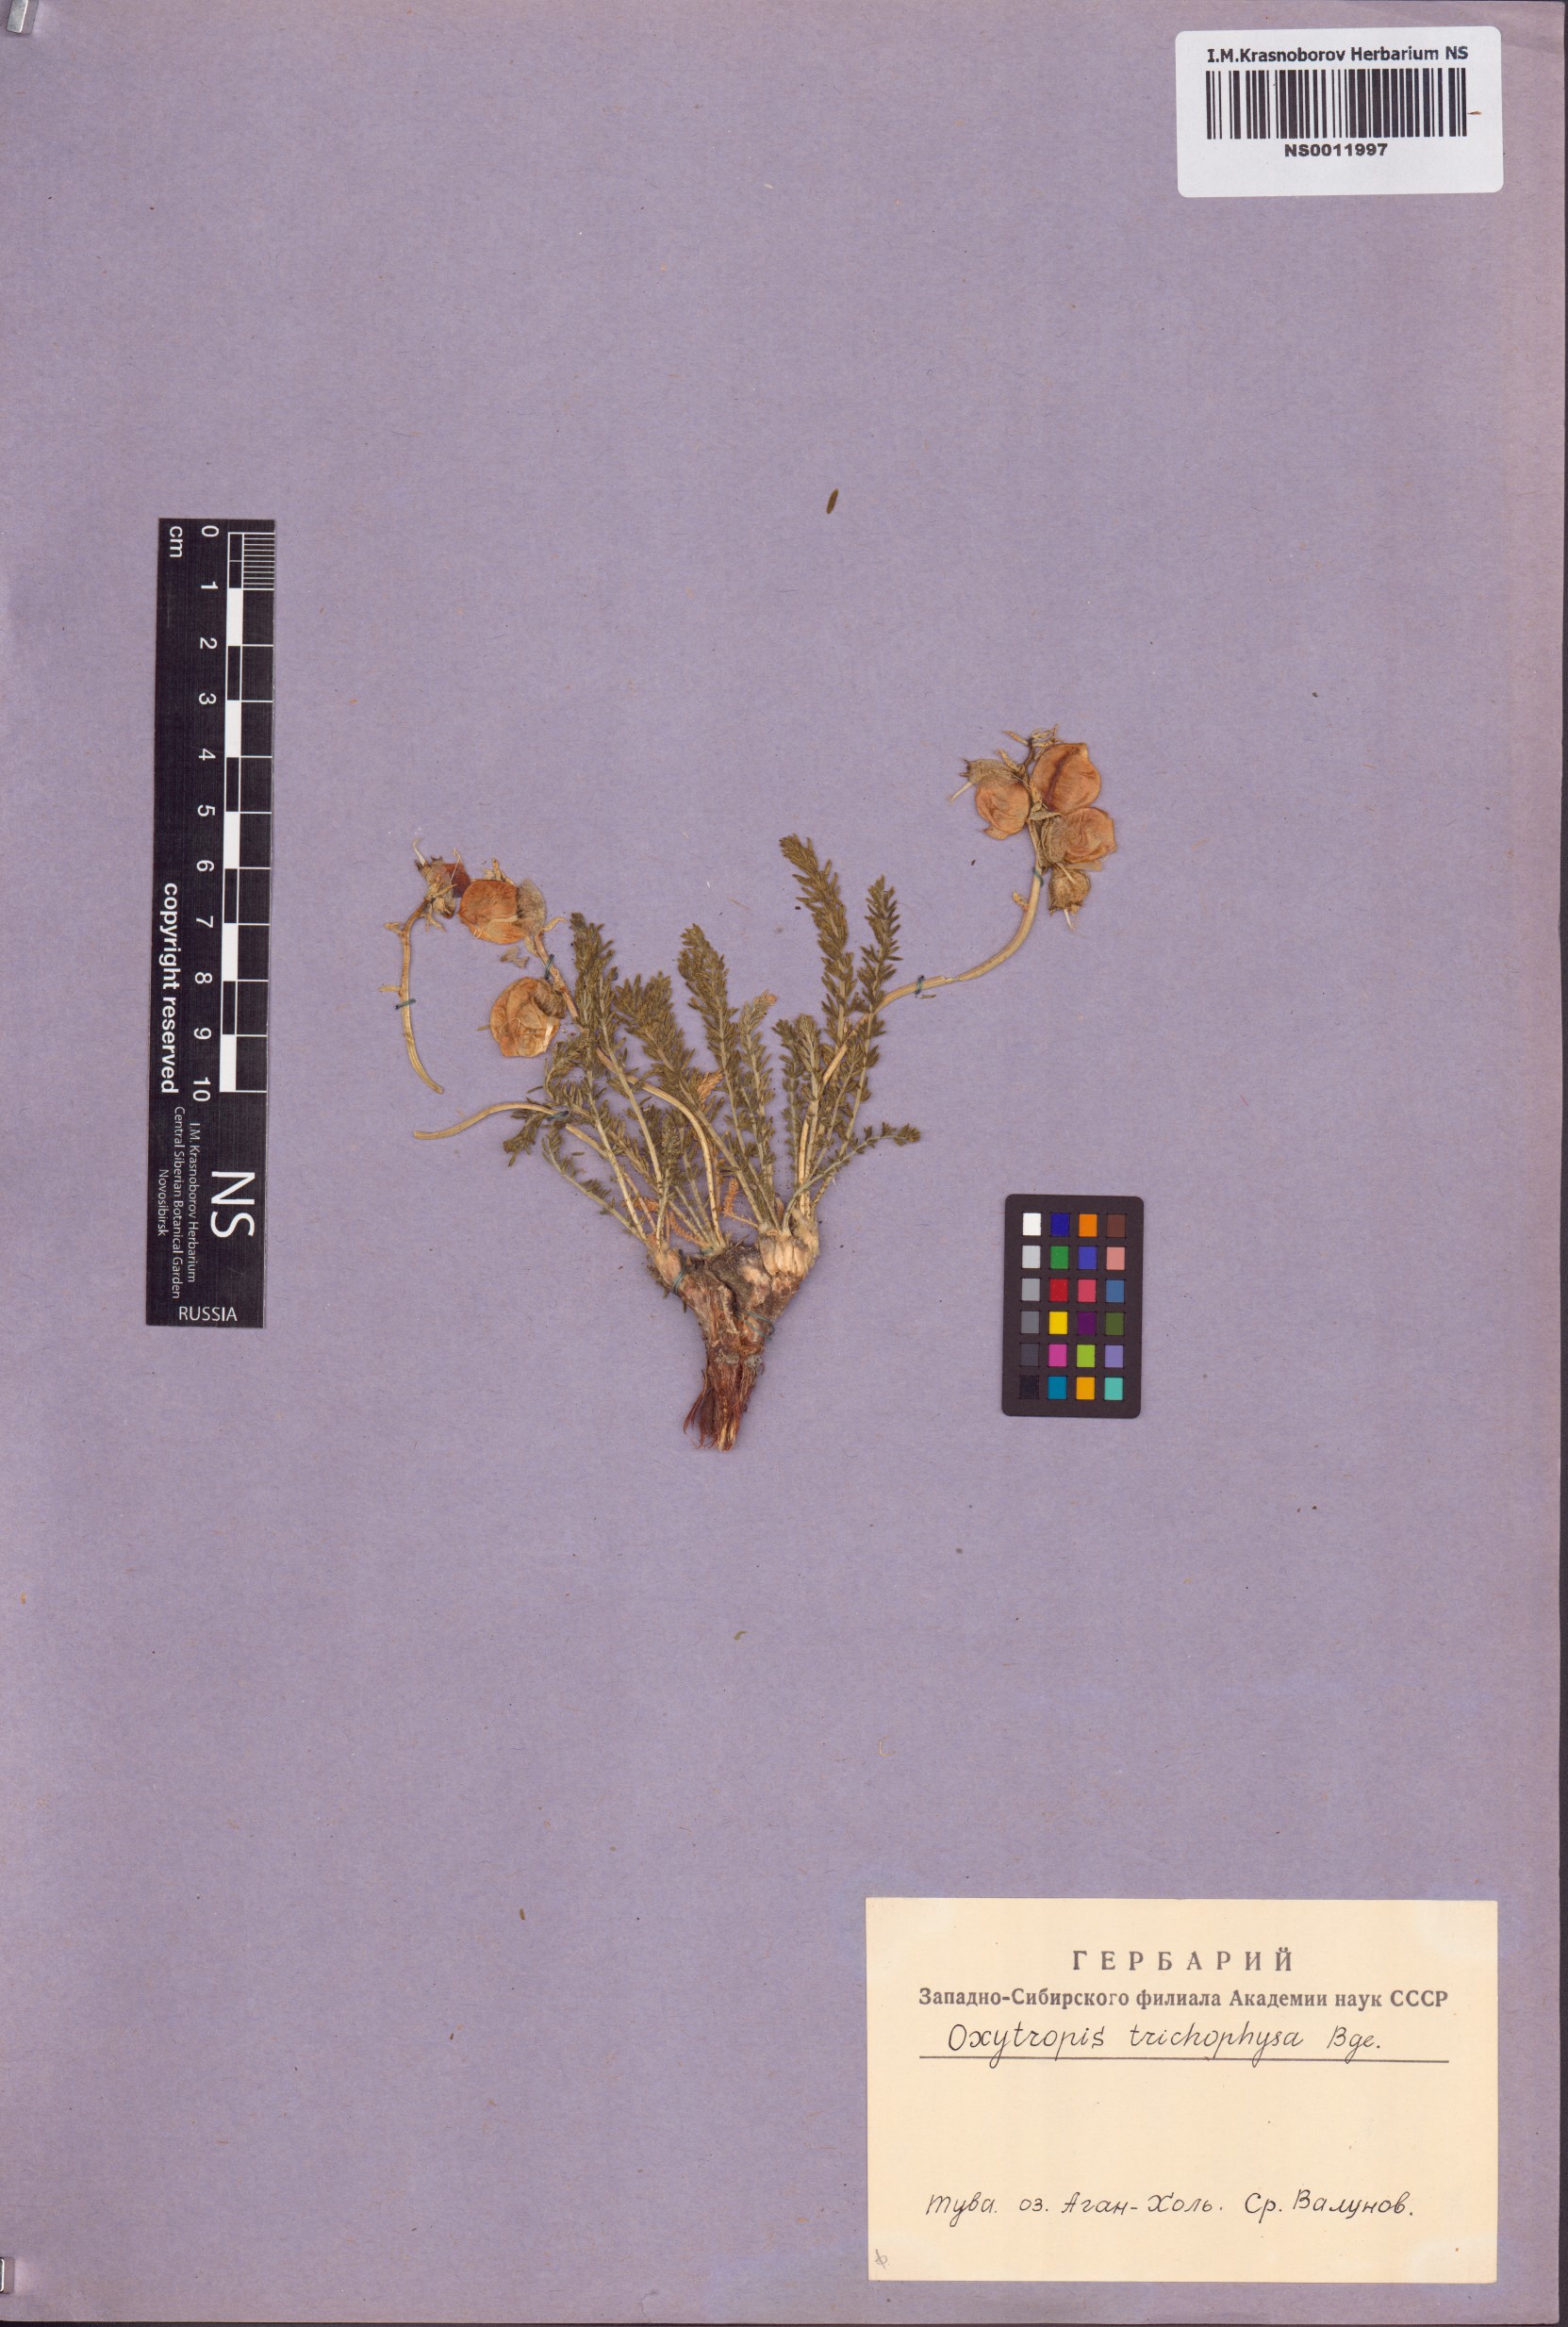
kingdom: Plantae
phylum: Tracheophyta
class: Magnoliopsida
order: Fabales
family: Fabaceae
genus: Oxytropis
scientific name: Oxytropis trichophysa
